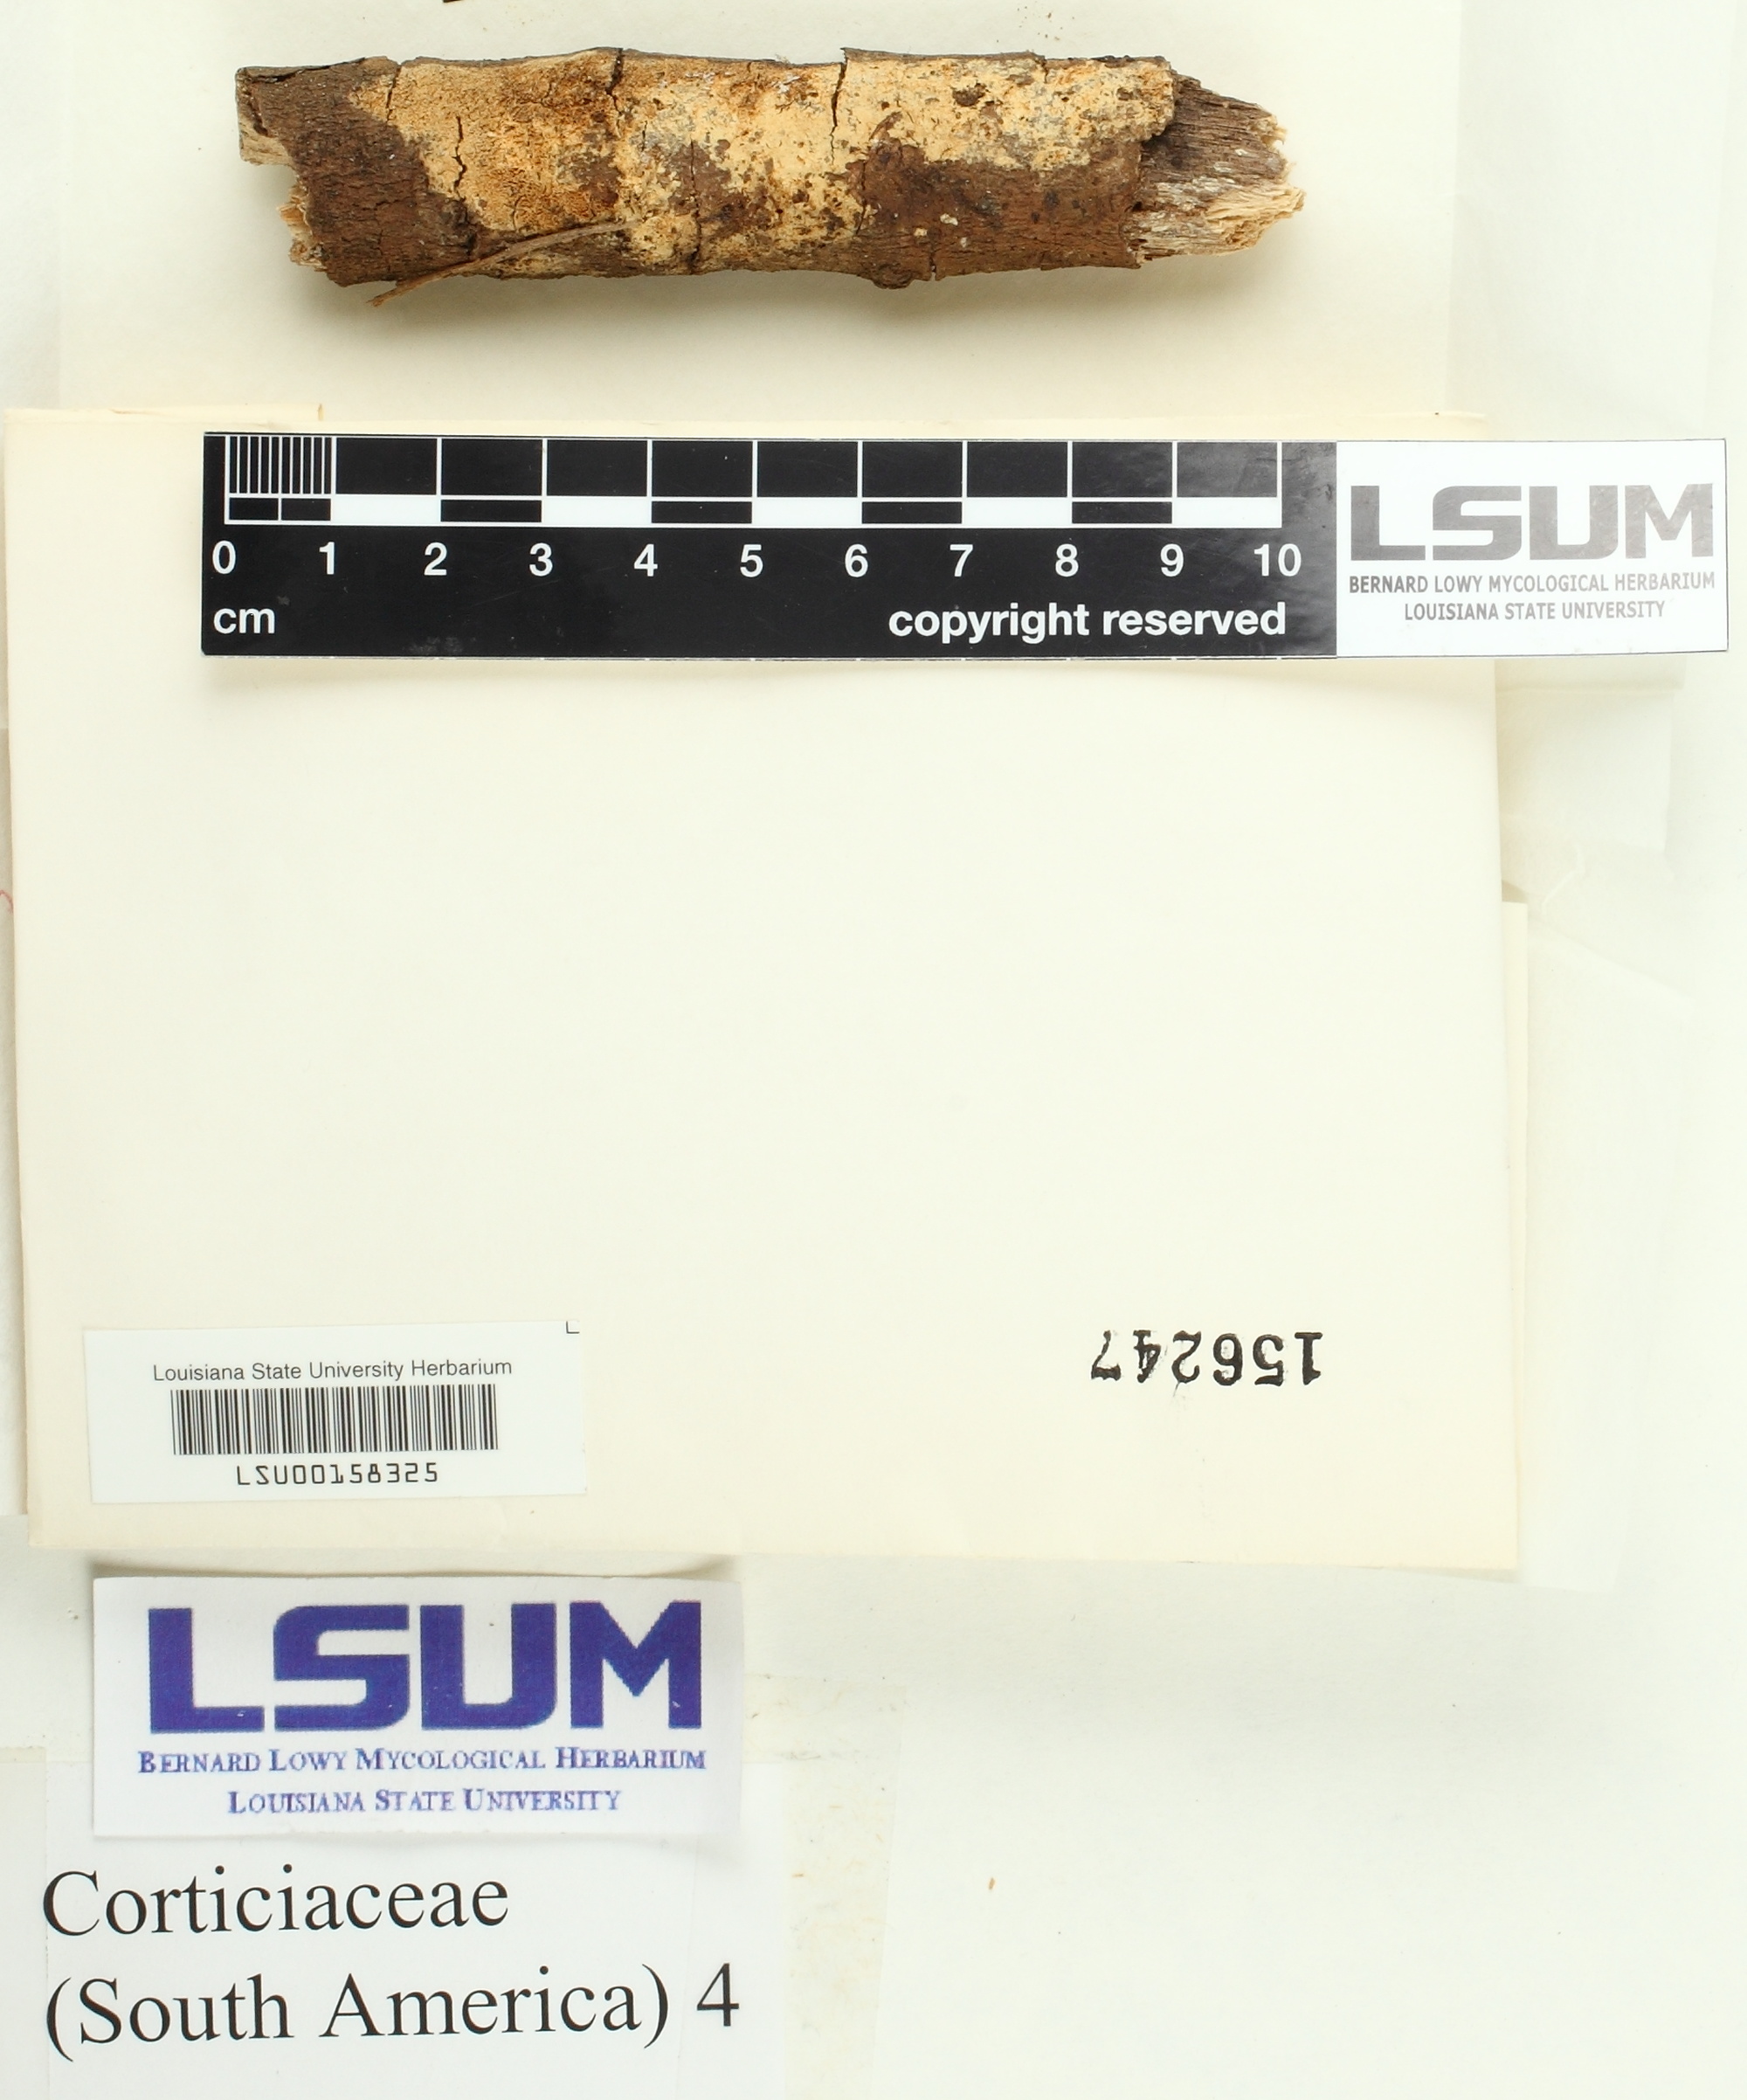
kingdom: Fungi
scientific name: Fungi
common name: Fungi
